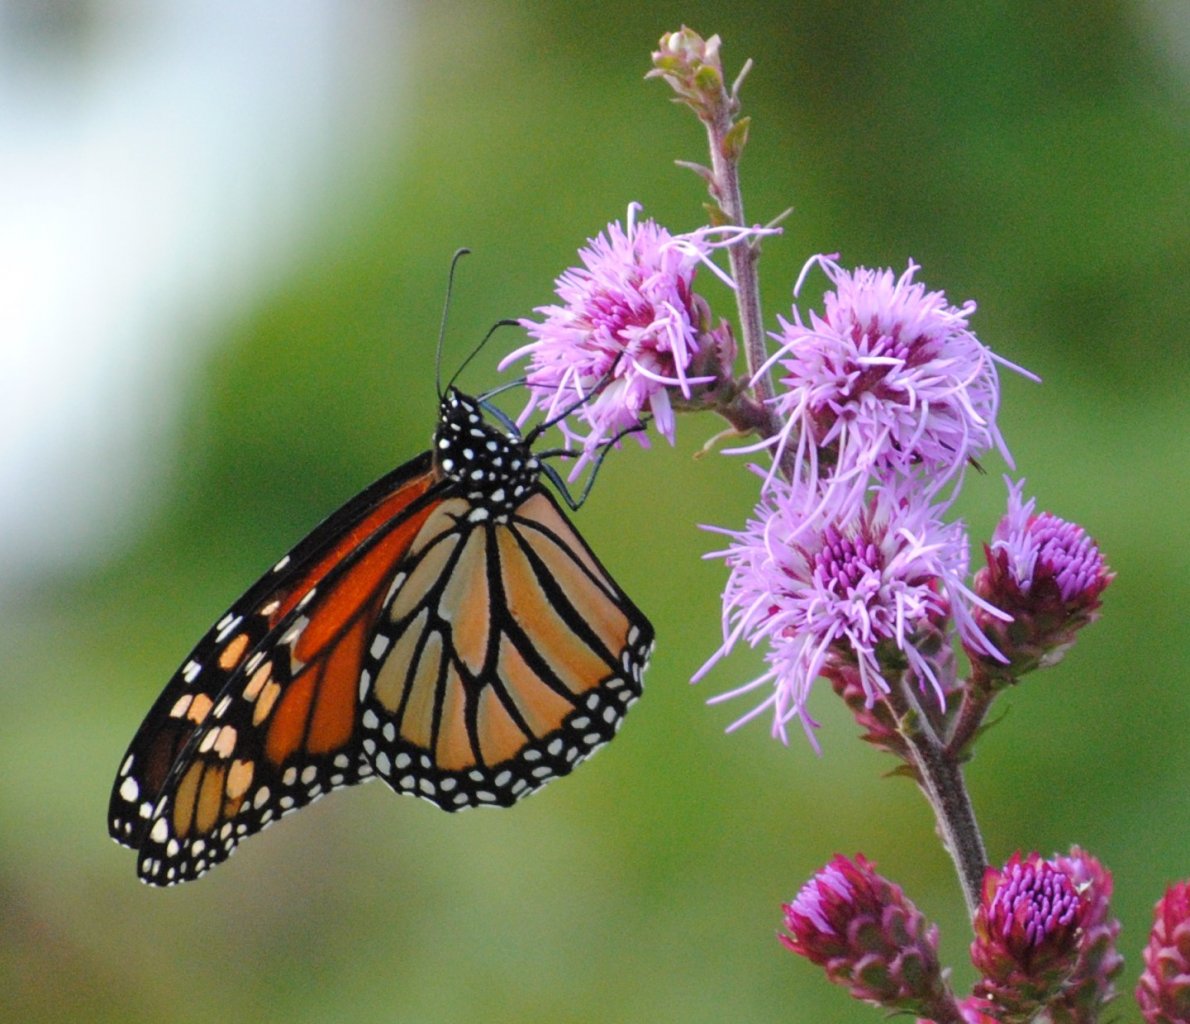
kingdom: Animalia
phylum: Arthropoda
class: Insecta
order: Lepidoptera
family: Nymphalidae
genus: Danaus
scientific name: Danaus plexippus
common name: Monarch
